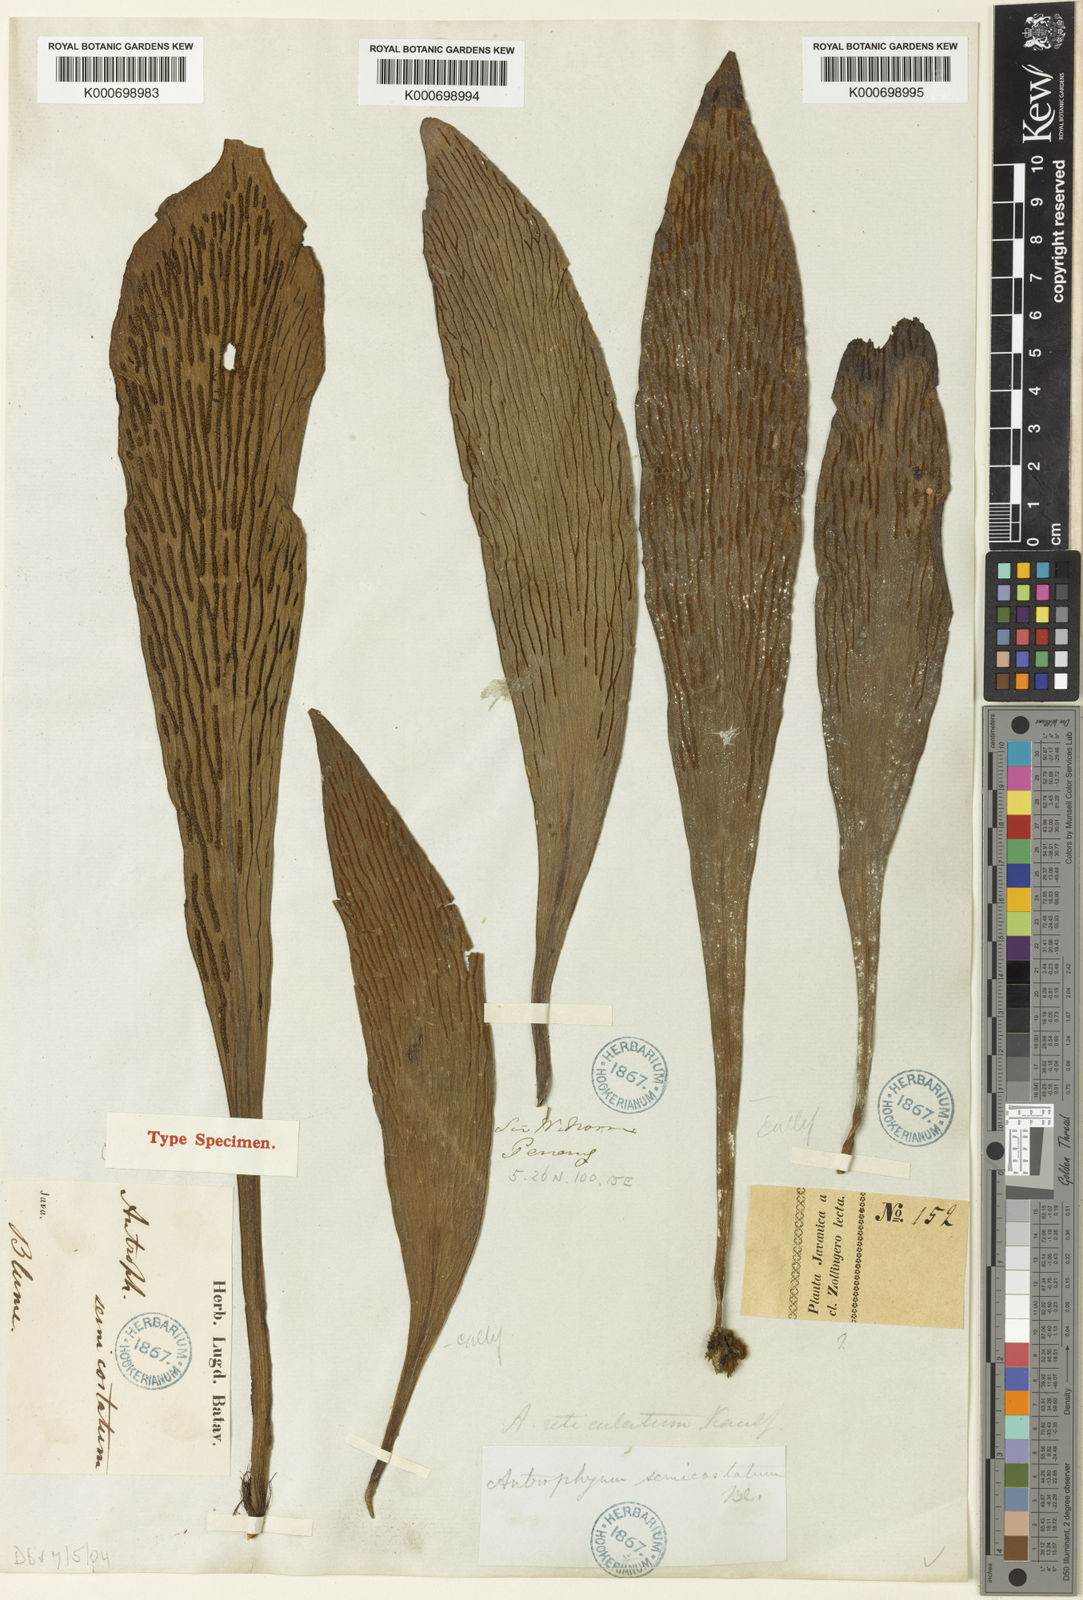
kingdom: Plantae
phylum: Tracheophyta
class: Polypodiopsida
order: Polypodiales
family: Pteridaceae
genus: Antrophyum
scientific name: Antrophyum semicostatum
